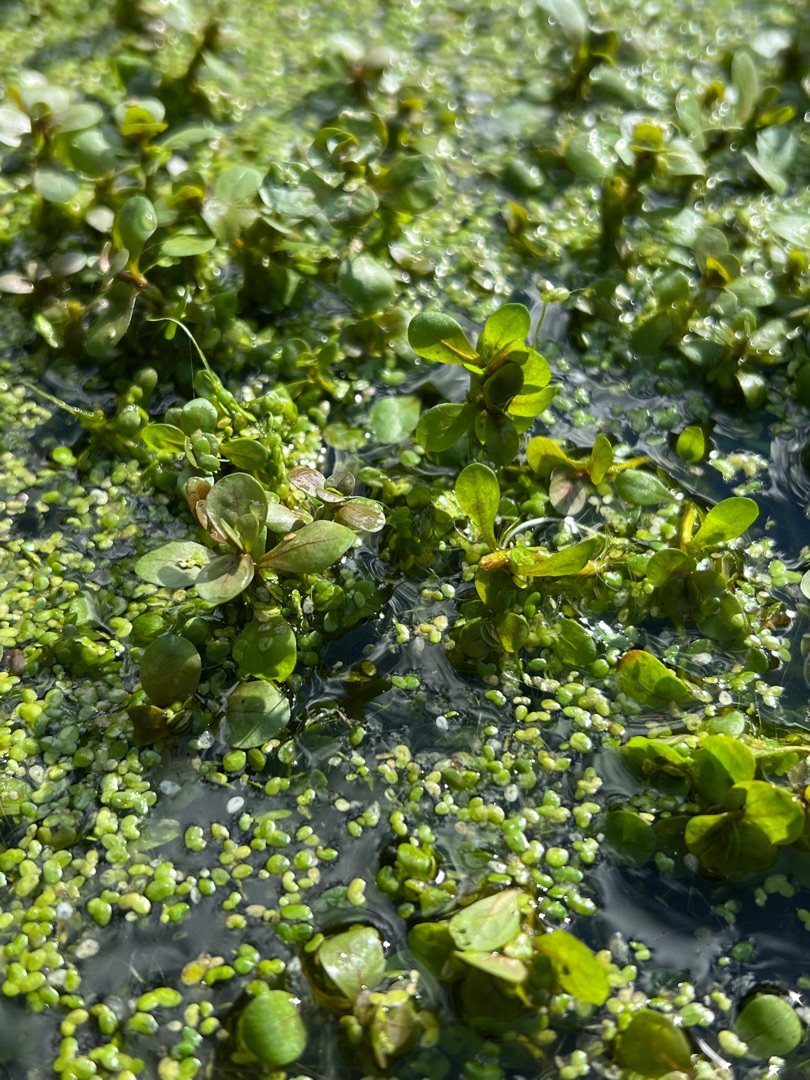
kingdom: Plantae
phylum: Tracheophyta
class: Magnoliopsida
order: Myrtales
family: Lythraceae
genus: Lythrum
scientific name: Lythrum portula
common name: Vandportulak
